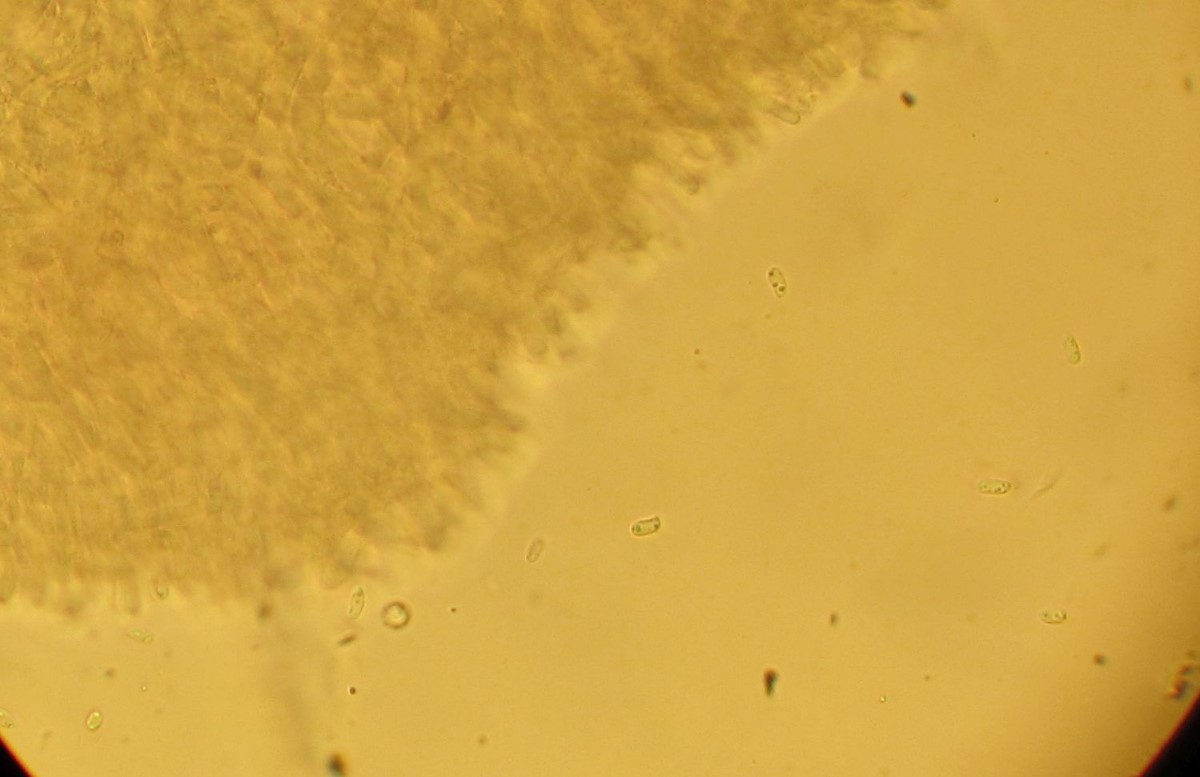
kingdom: Fungi
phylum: Basidiomycota
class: Agaricomycetes
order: Polyporales
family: Phanerochaetaceae
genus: Phanerochaete
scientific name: Phanerochaete sordida
